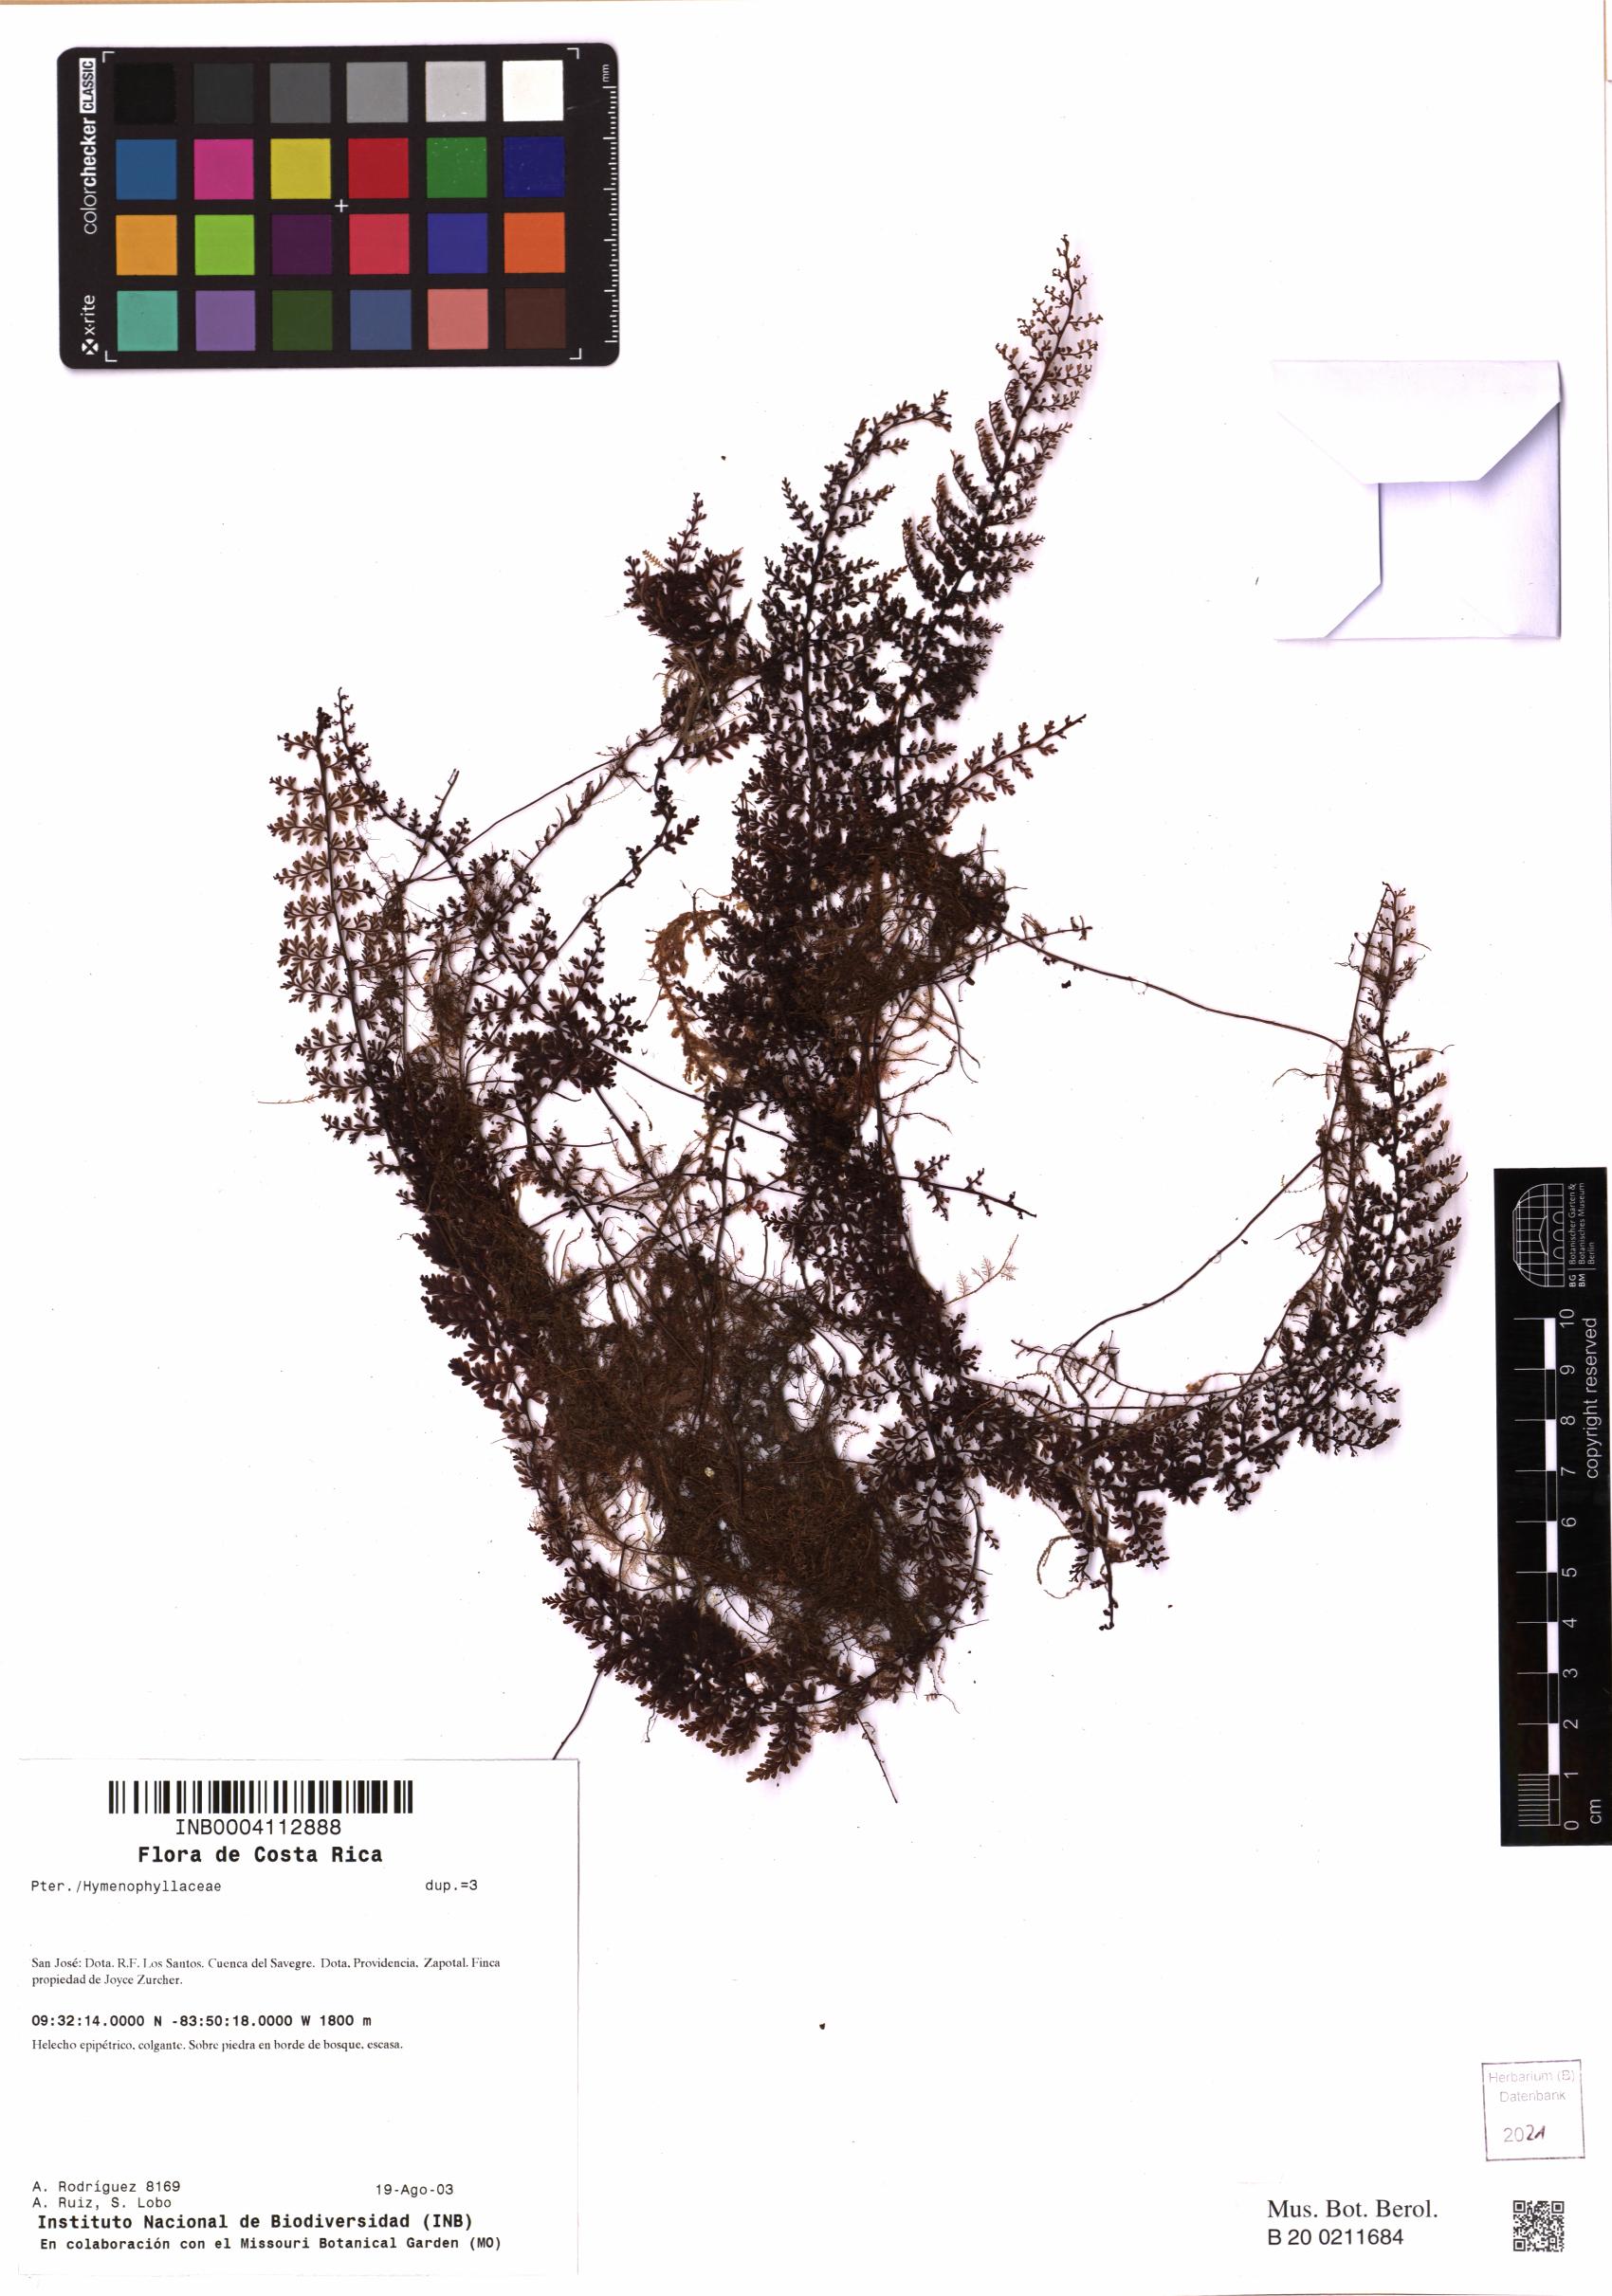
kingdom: Plantae
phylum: Tracheophyta
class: Polypodiopsida
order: Hymenophyllales
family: Hymenophyllaceae
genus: Hymenophyllum
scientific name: Hymenophyllum
